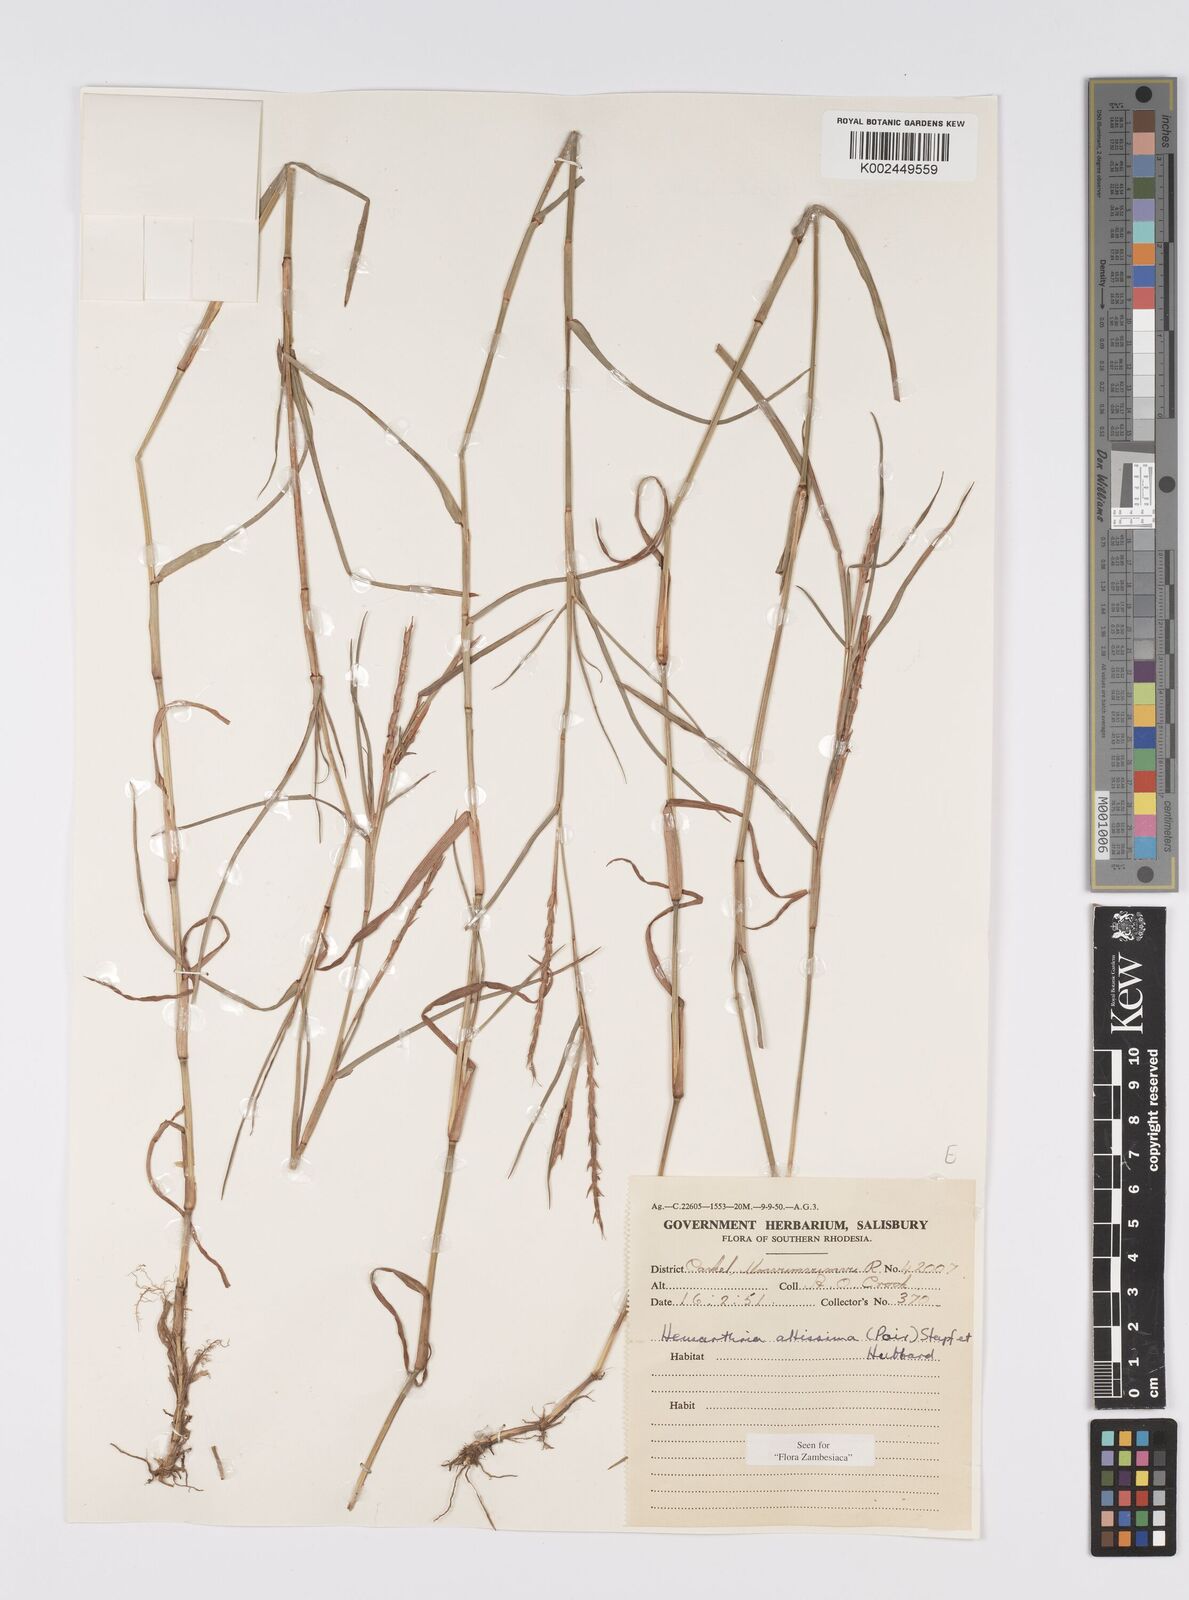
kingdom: Plantae
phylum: Tracheophyta
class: Liliopsida
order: Poales
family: Poaceae
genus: Hemarthria
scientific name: Hemarthria altissima
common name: African jointgrass
